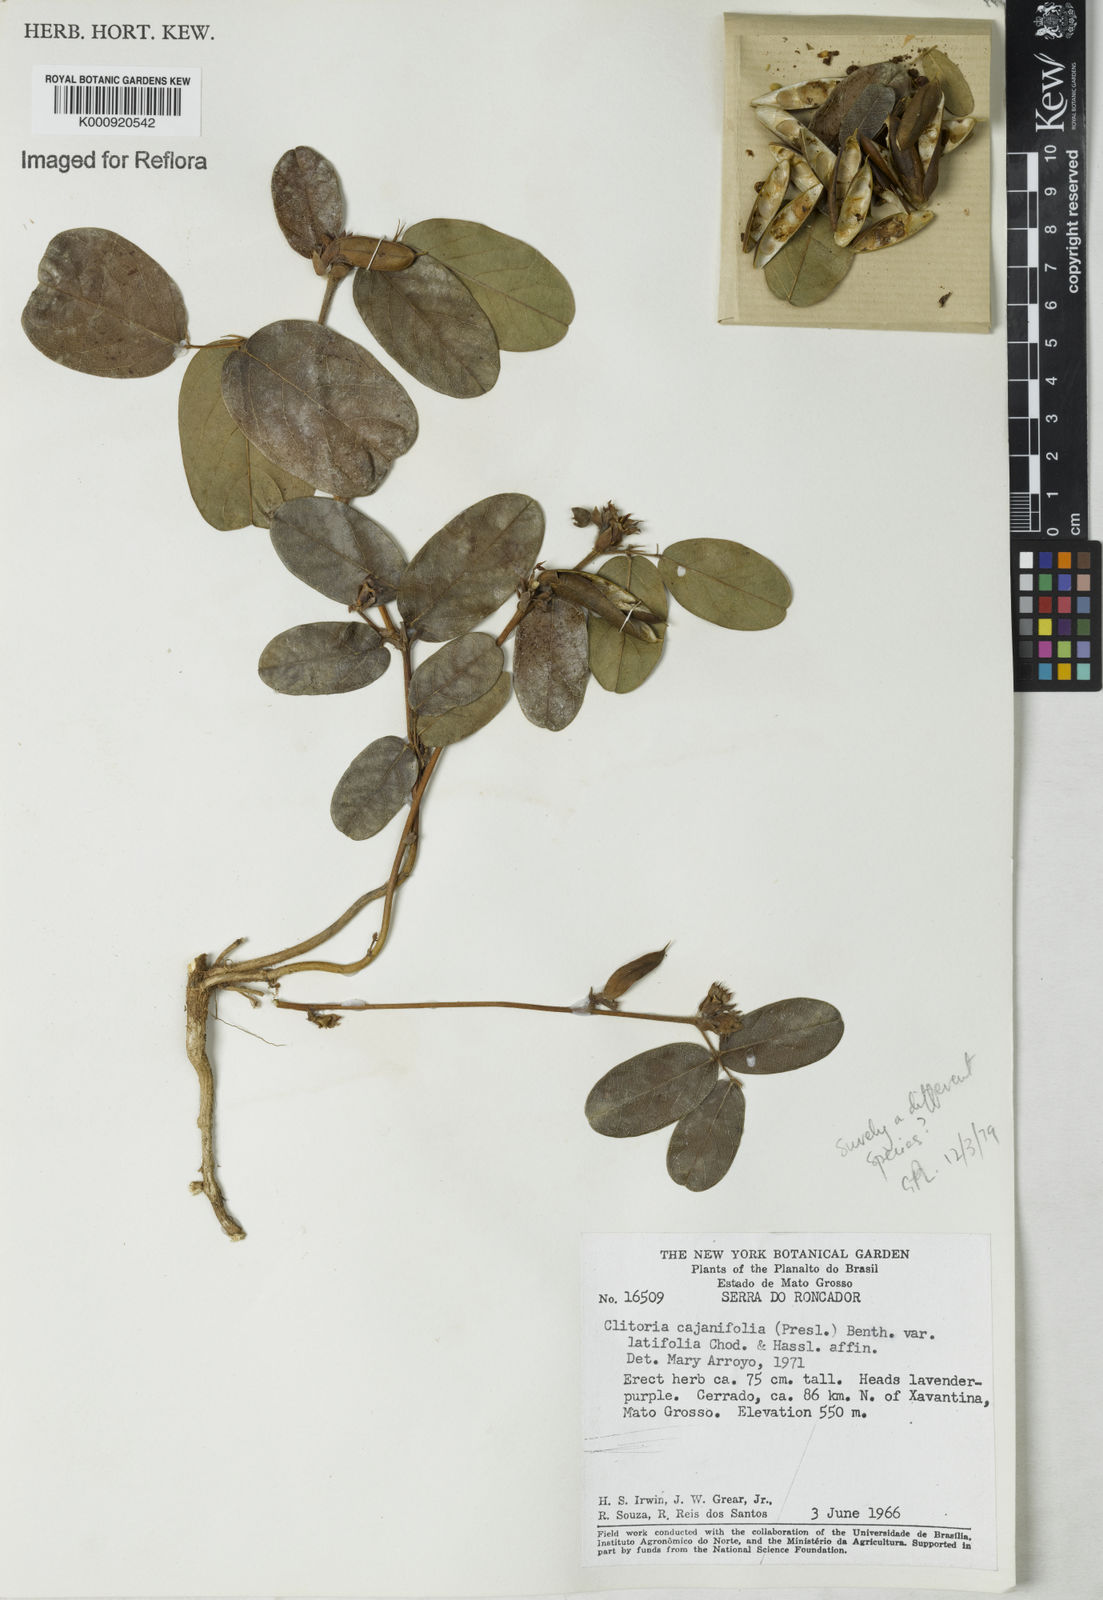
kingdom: Plantae
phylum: Tracheophyta
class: Magnoliopsida
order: Fabales
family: Fabaceae
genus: Clitoria
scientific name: Clitoria laurifolia
